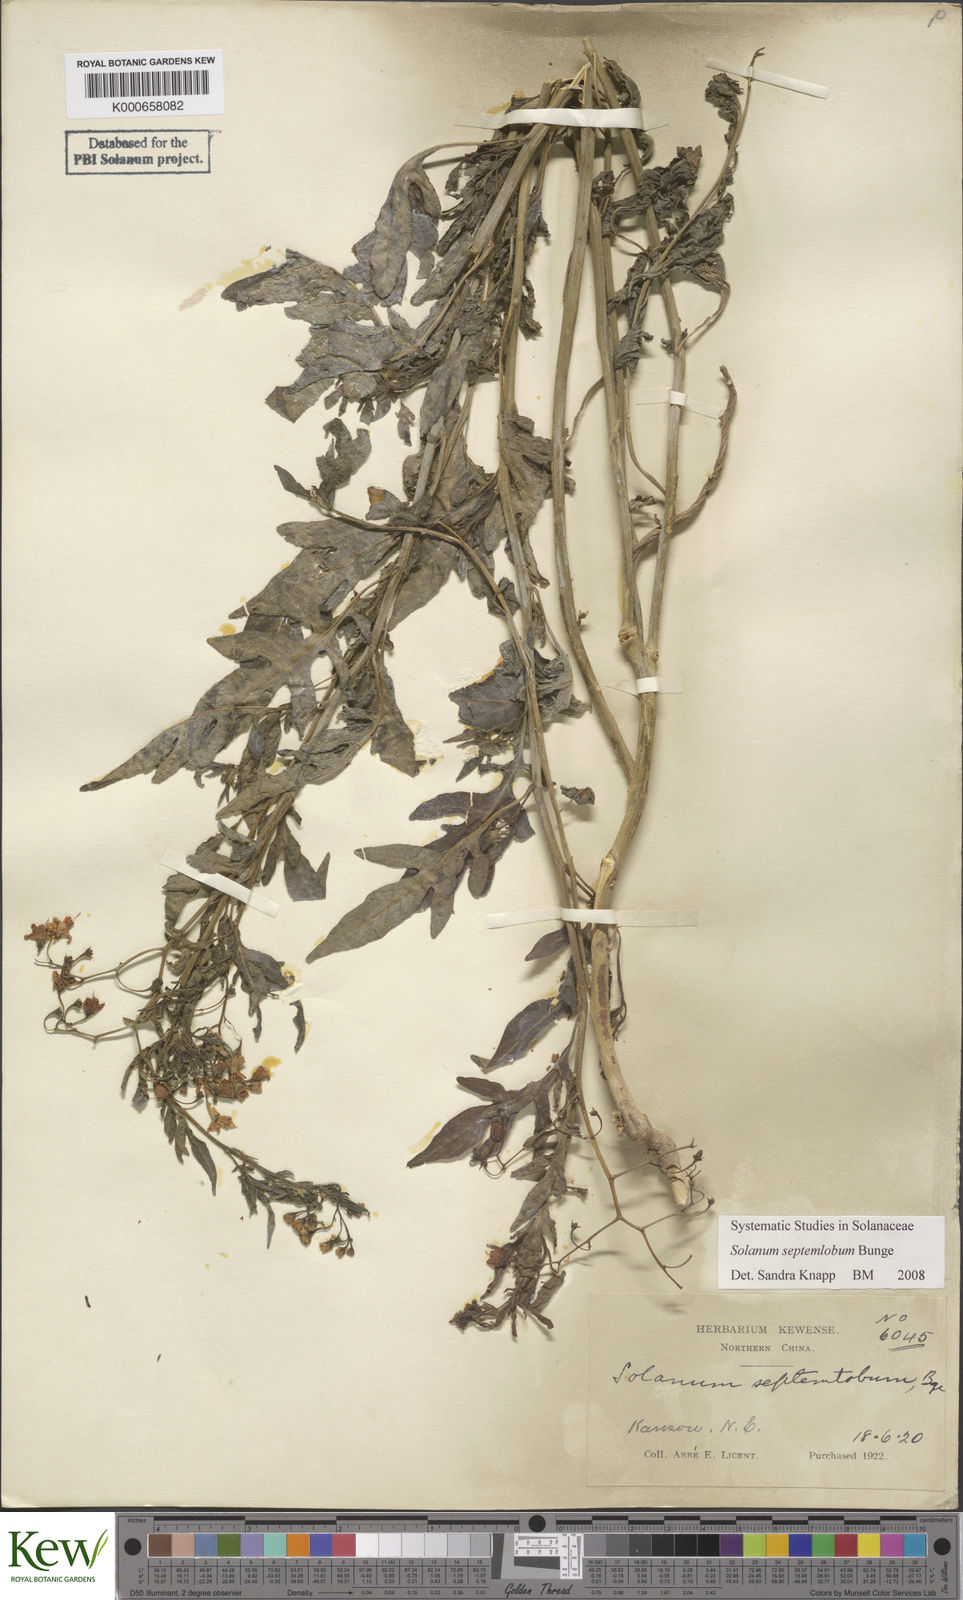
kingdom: Plantae
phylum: Tracheophyta
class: Magnoliopsida
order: Solanales
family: Solanaceae
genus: Solanum
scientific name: Solanum septemlobum
